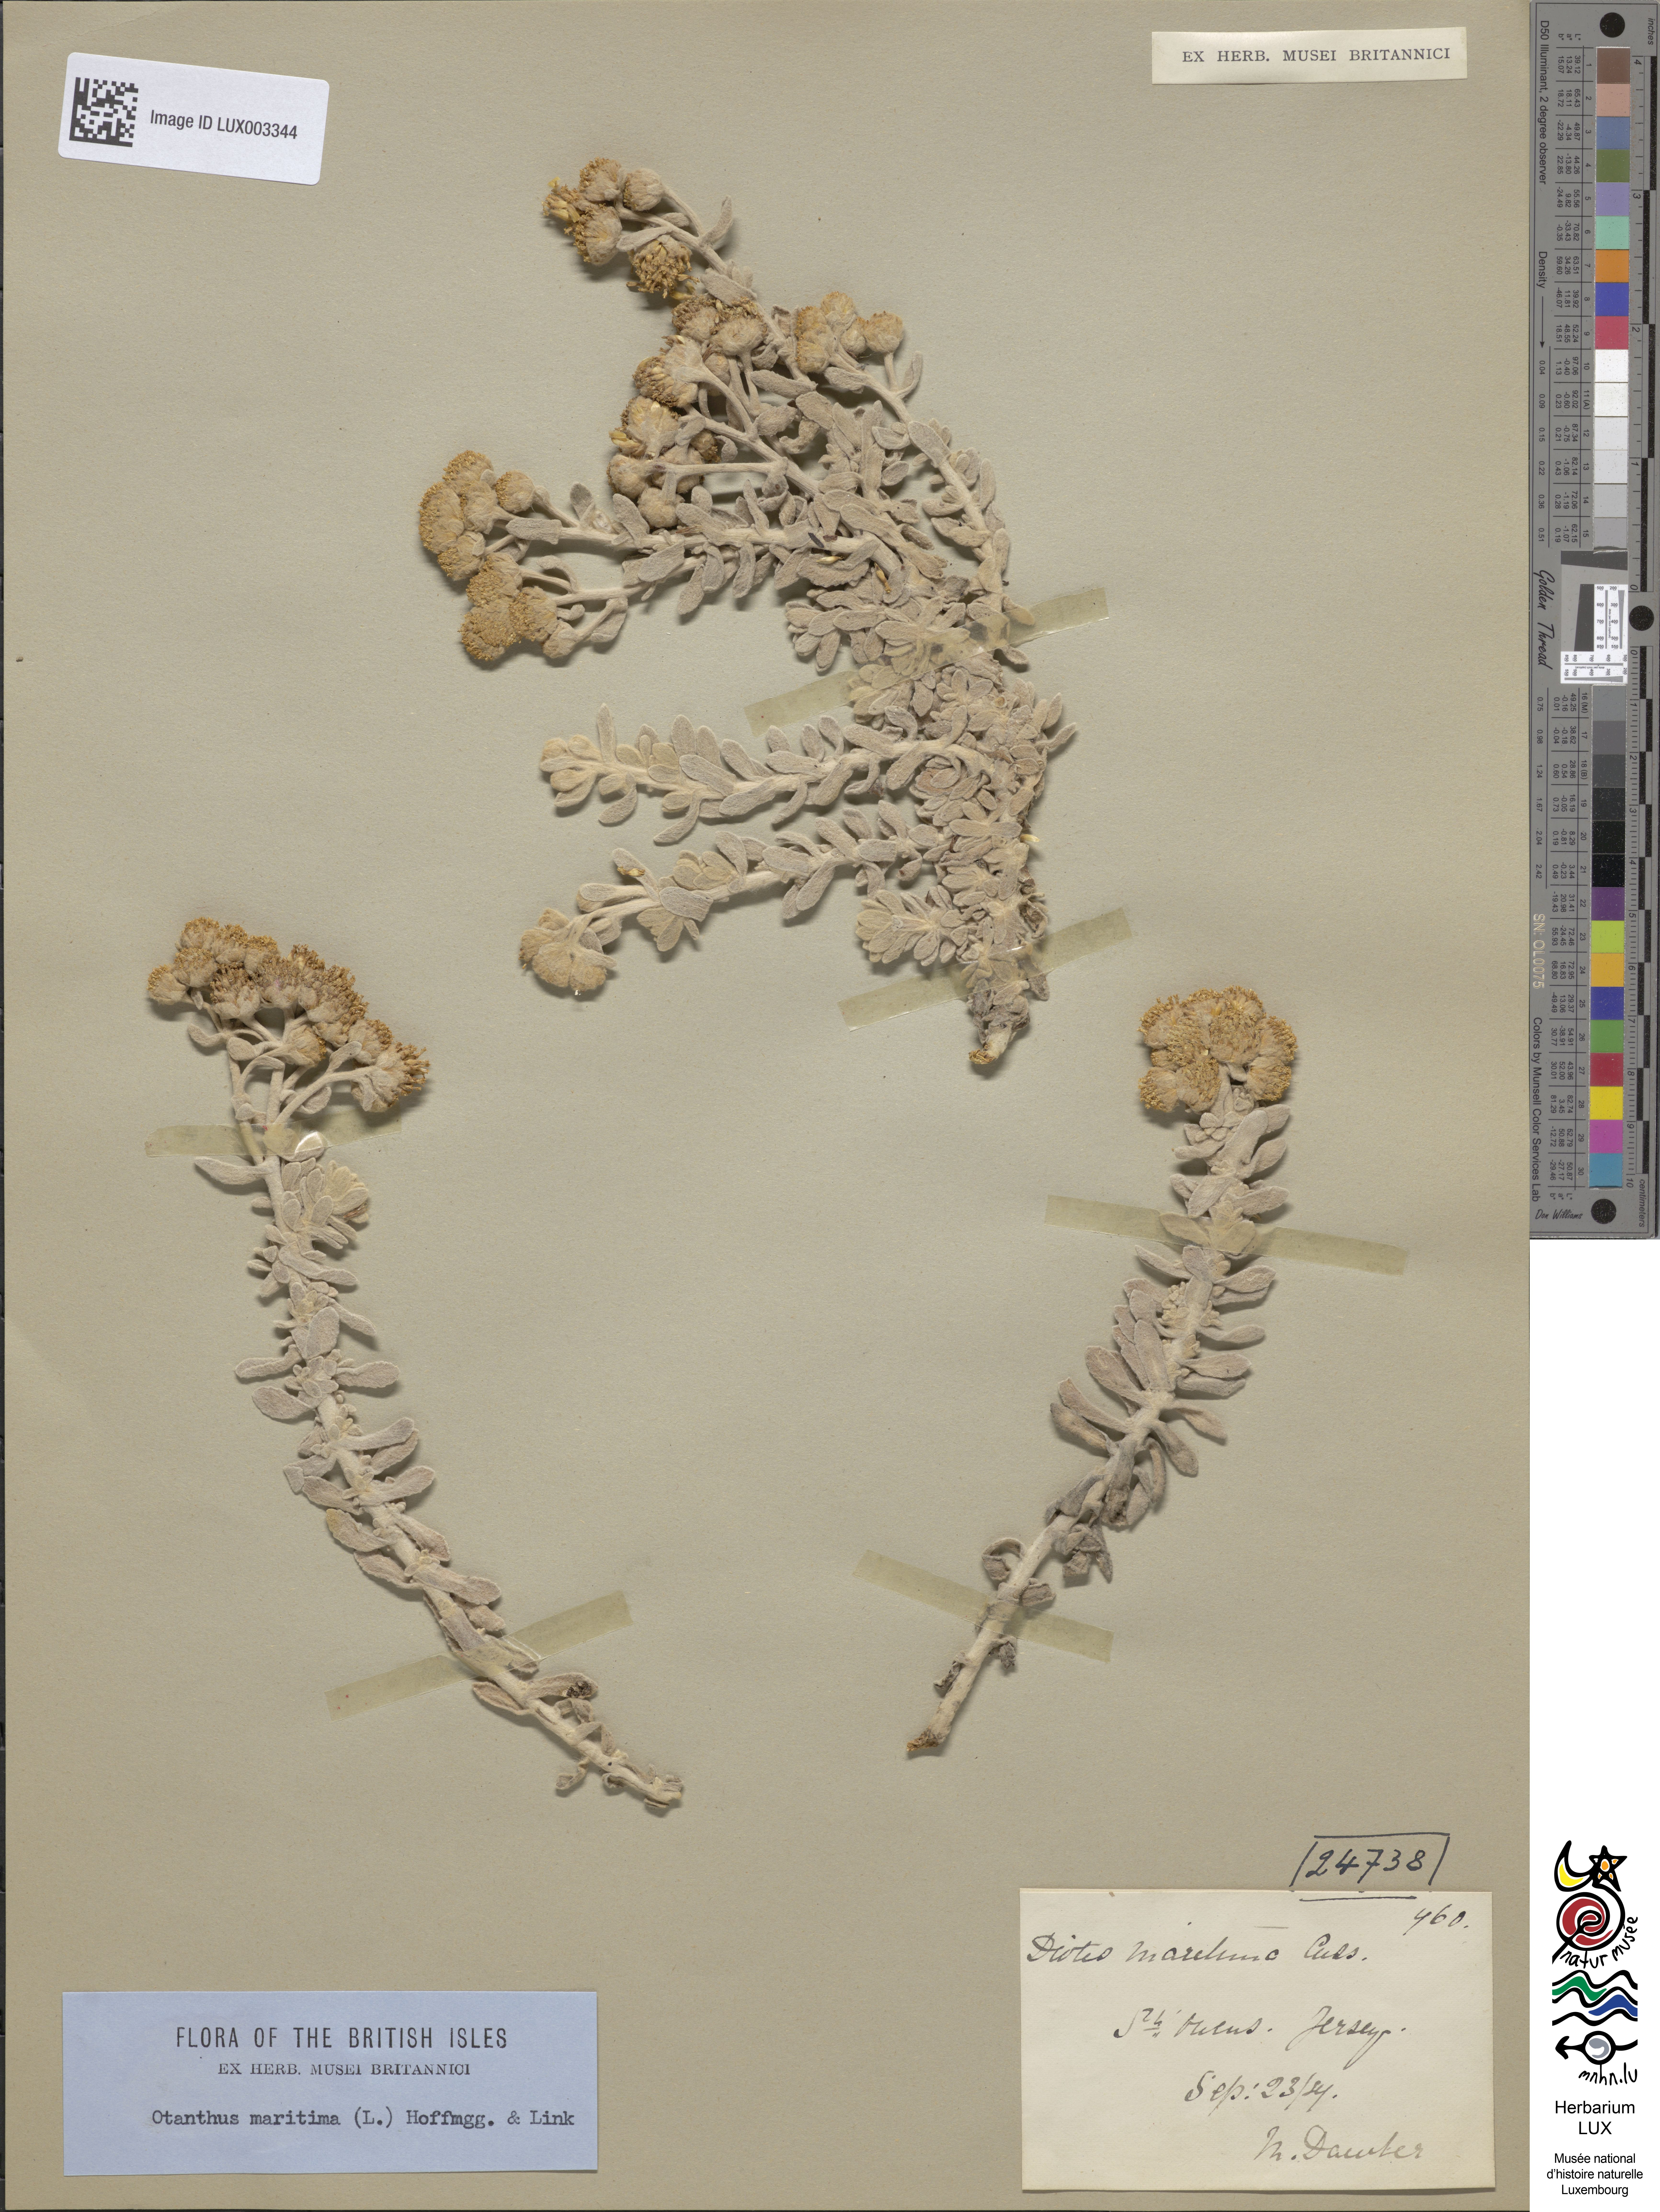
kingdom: Plantae
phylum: Tracheophyta
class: Magnoliopsida
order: Asterales
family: Asteraceae
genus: Achillea
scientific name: Achillea maritima
